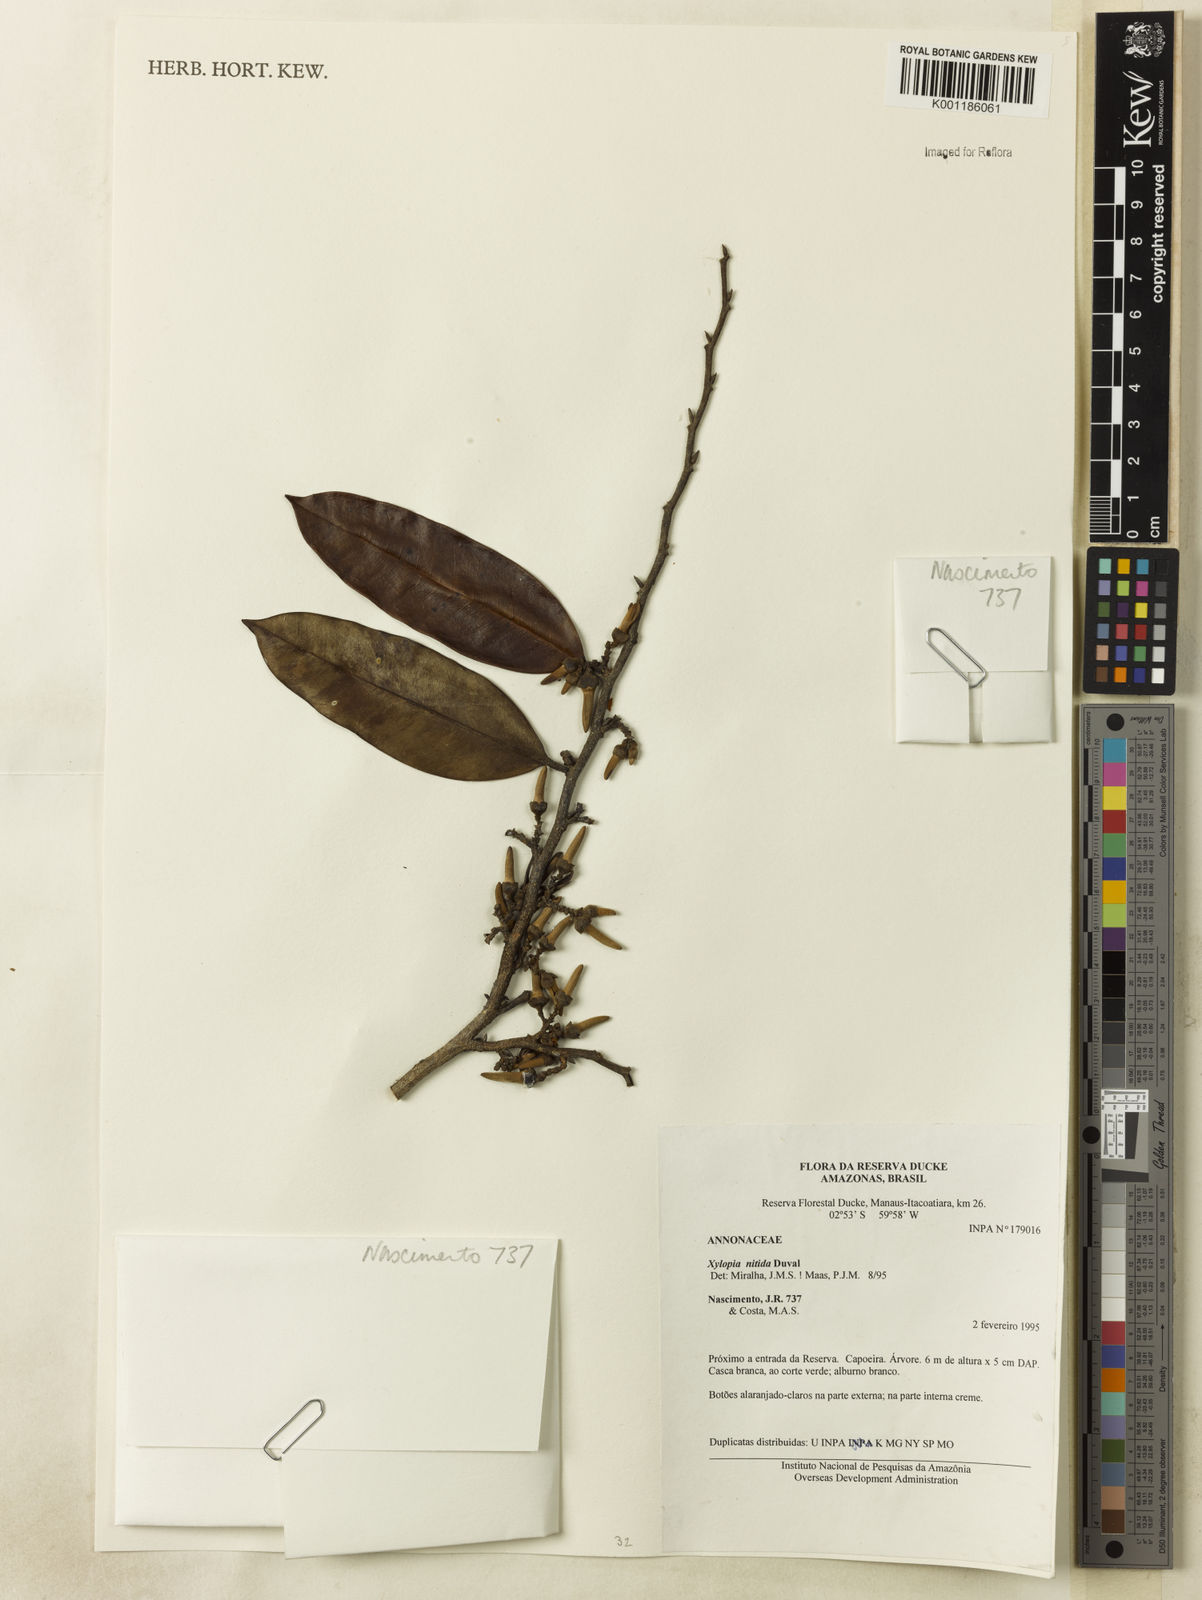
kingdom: Plantae
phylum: Tracheophyta
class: Magnoliopsida
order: Magnoliales
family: Annonaceae
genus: Xylopia
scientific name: Xylopia nitida
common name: White kuyama
